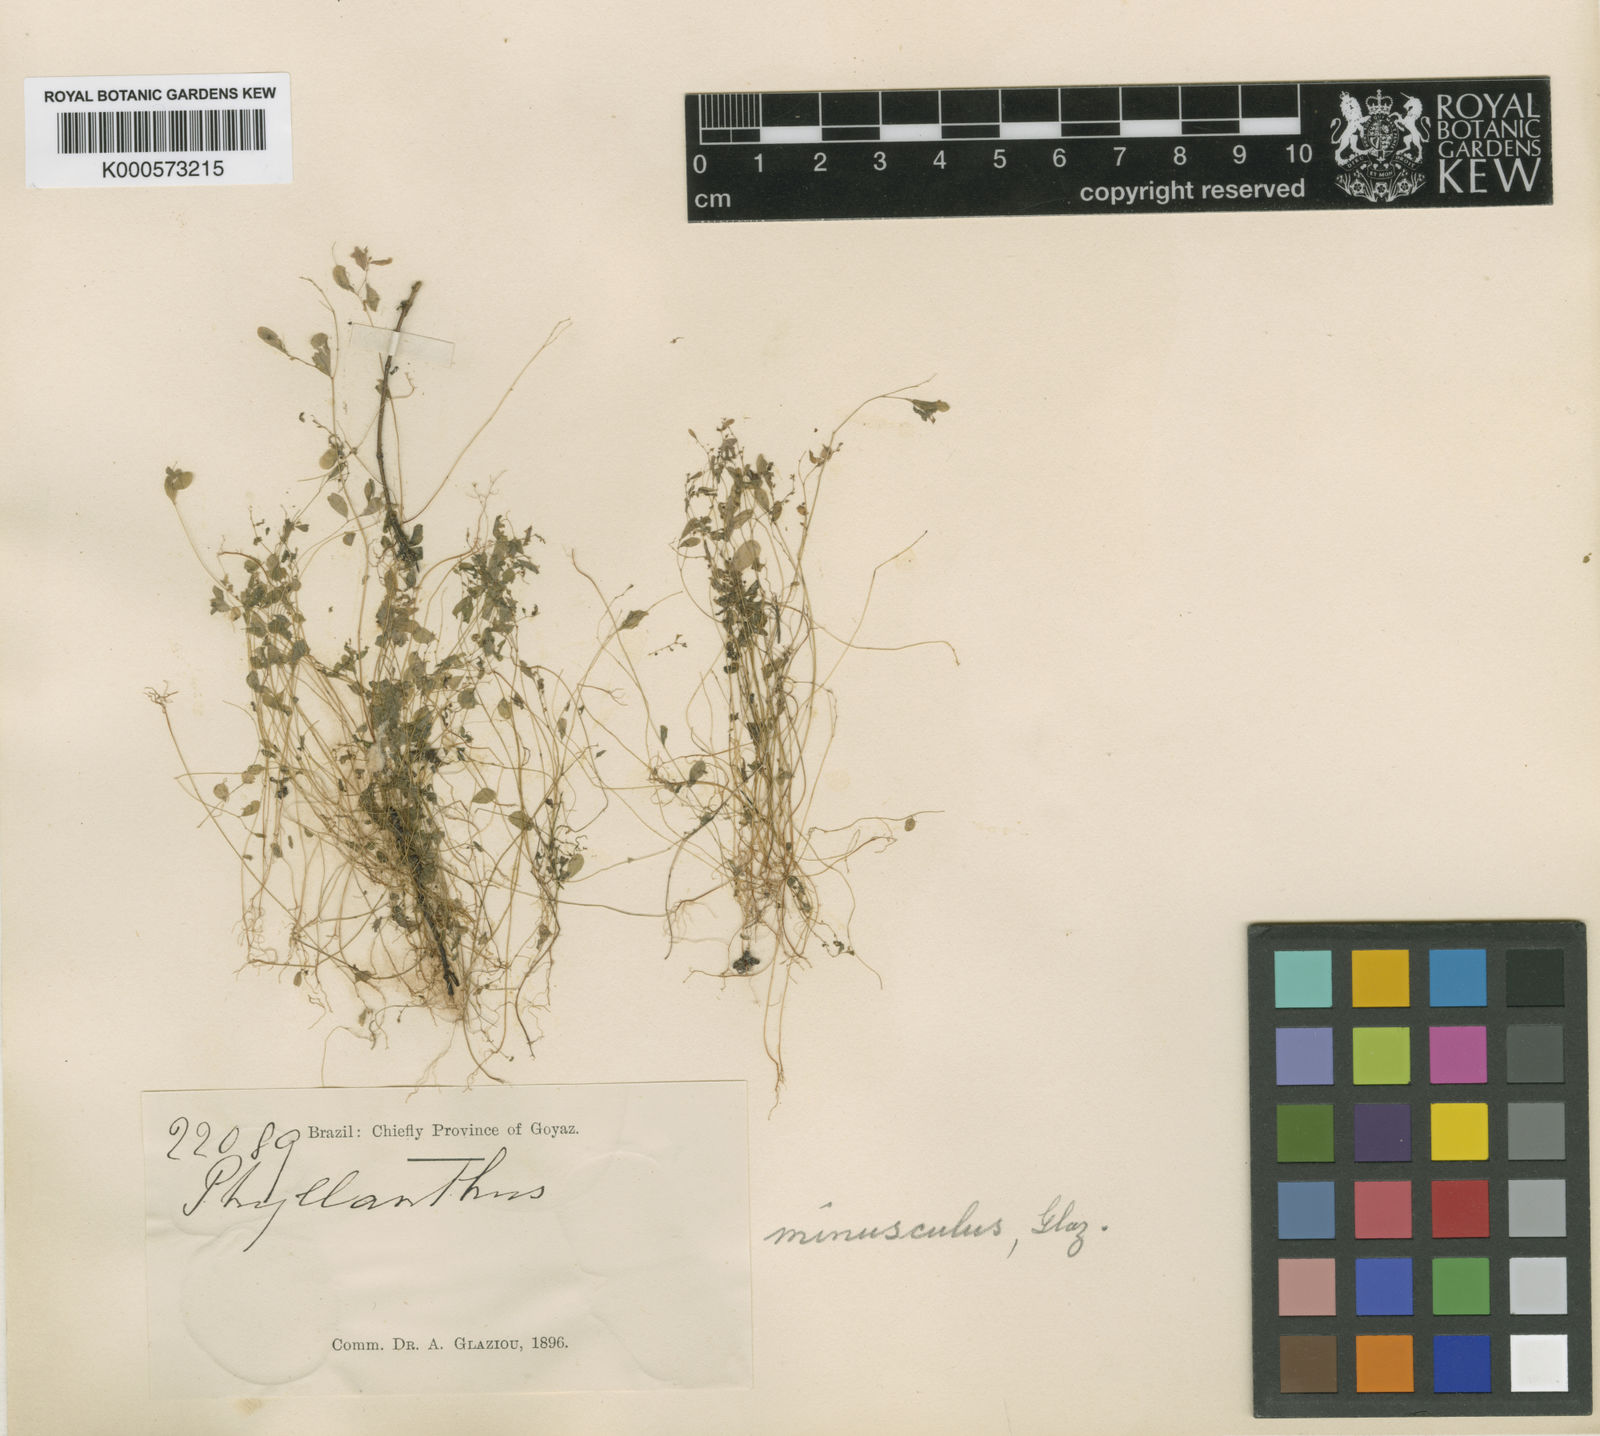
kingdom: Plantae
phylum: Tracheophyta
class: Magnoliopsida
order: Malpighiales
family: Phyllanthaceae
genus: Phyllanthus
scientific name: Phyllanthus
